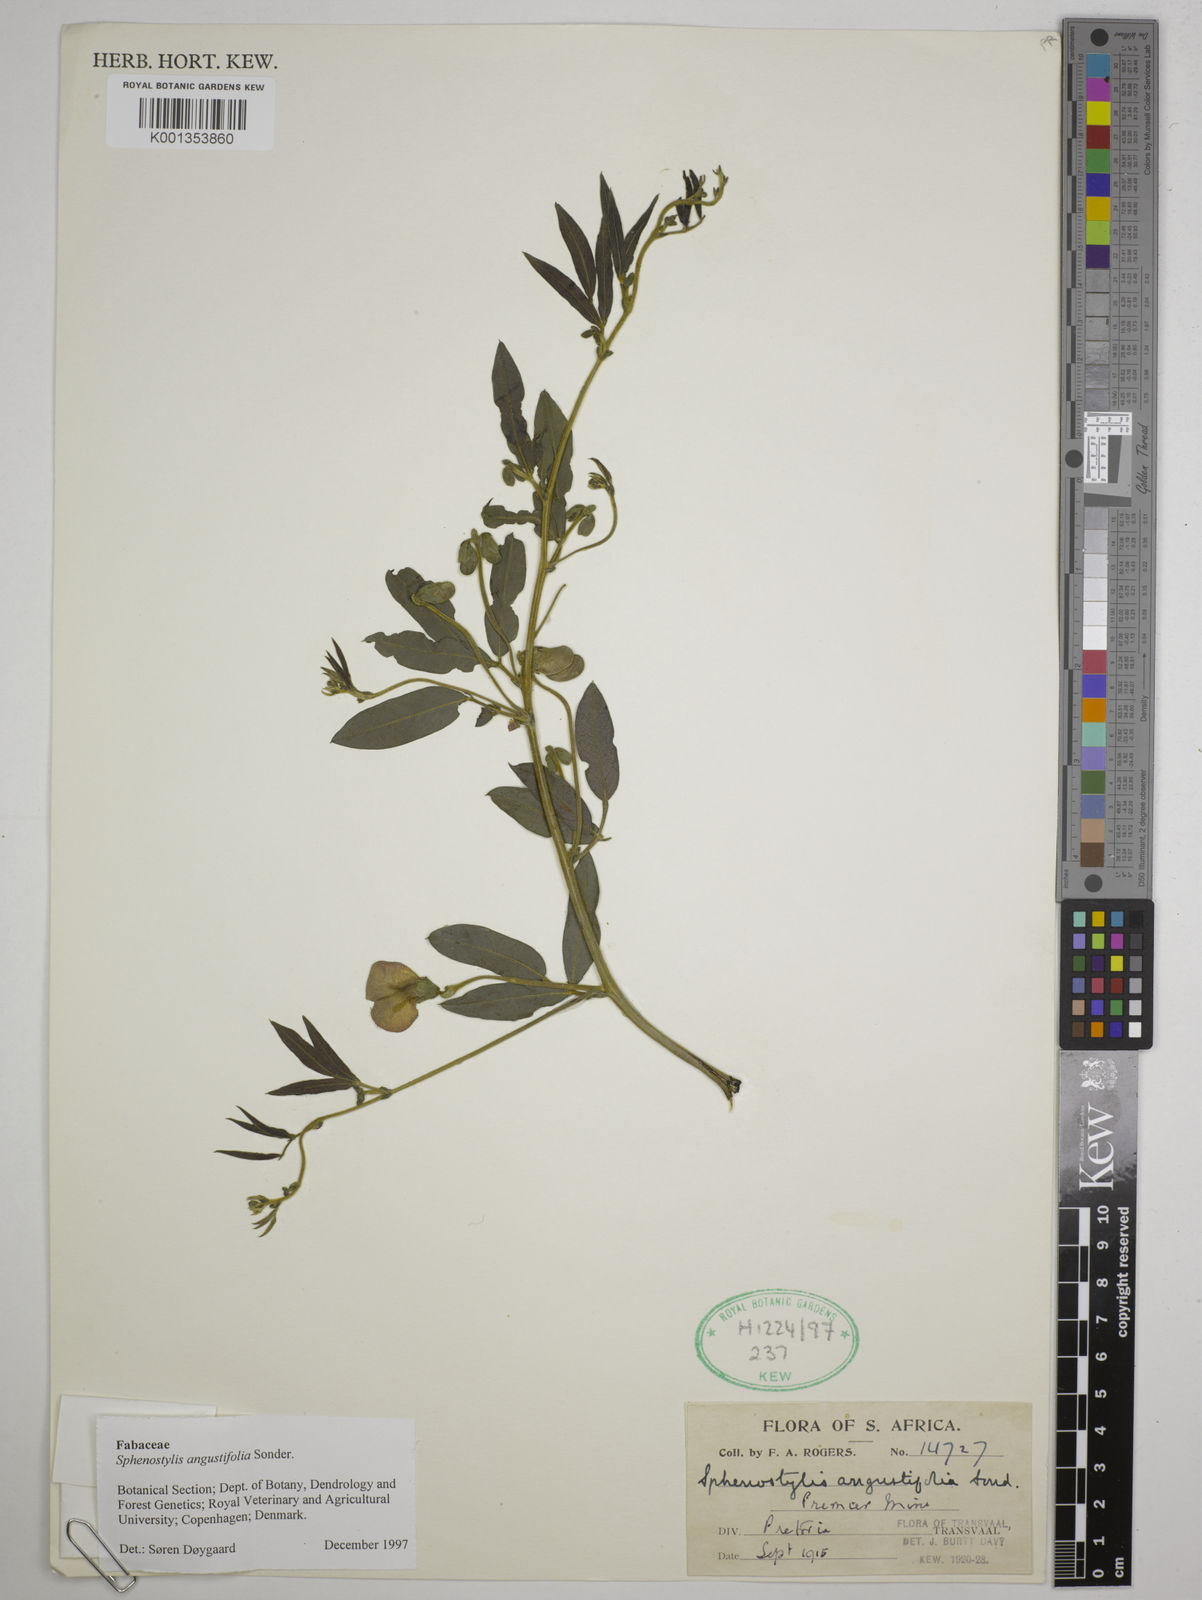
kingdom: Plantae
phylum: Tracheophyta
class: Magnoliopsida
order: Fabales
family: Fabaceae
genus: Sphenostylis
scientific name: Sphenostylis angustifolia
